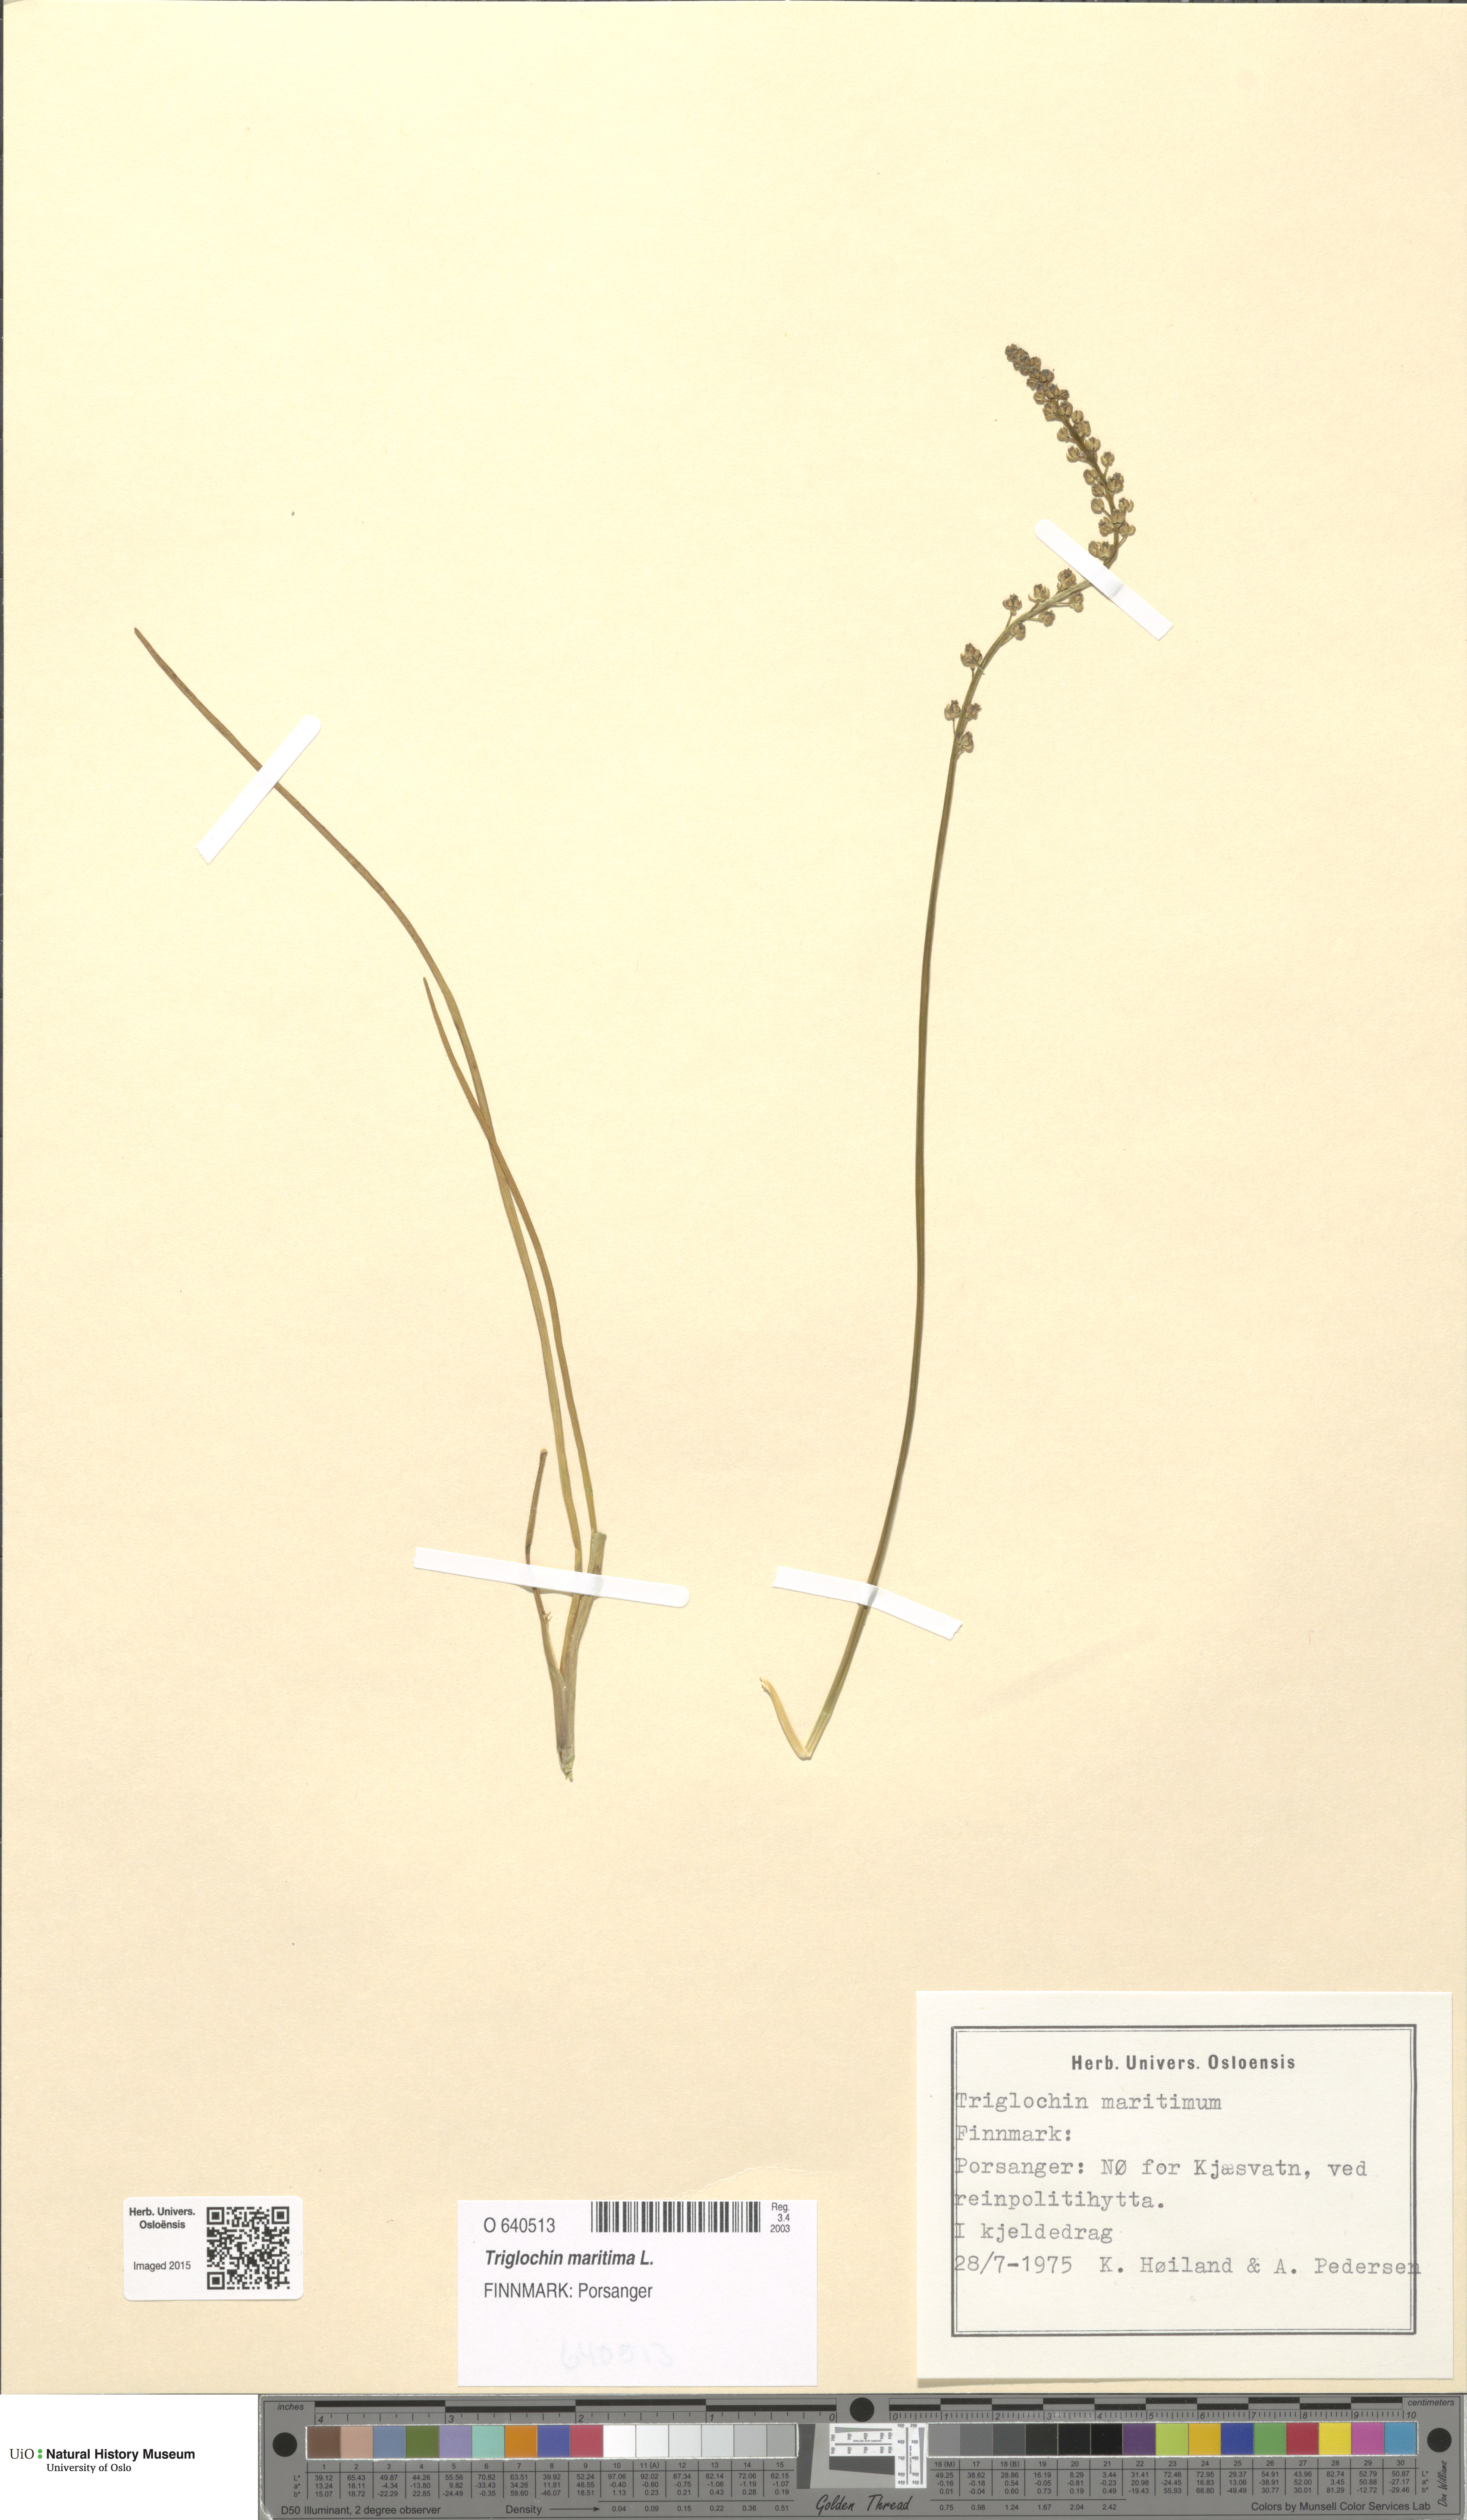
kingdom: Plantae
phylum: Tracheophyta
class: Liliopsida
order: Alismatales
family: Juncaginaceae
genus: Triglochin
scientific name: Triglochin maritima
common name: Sea arrowgrass
